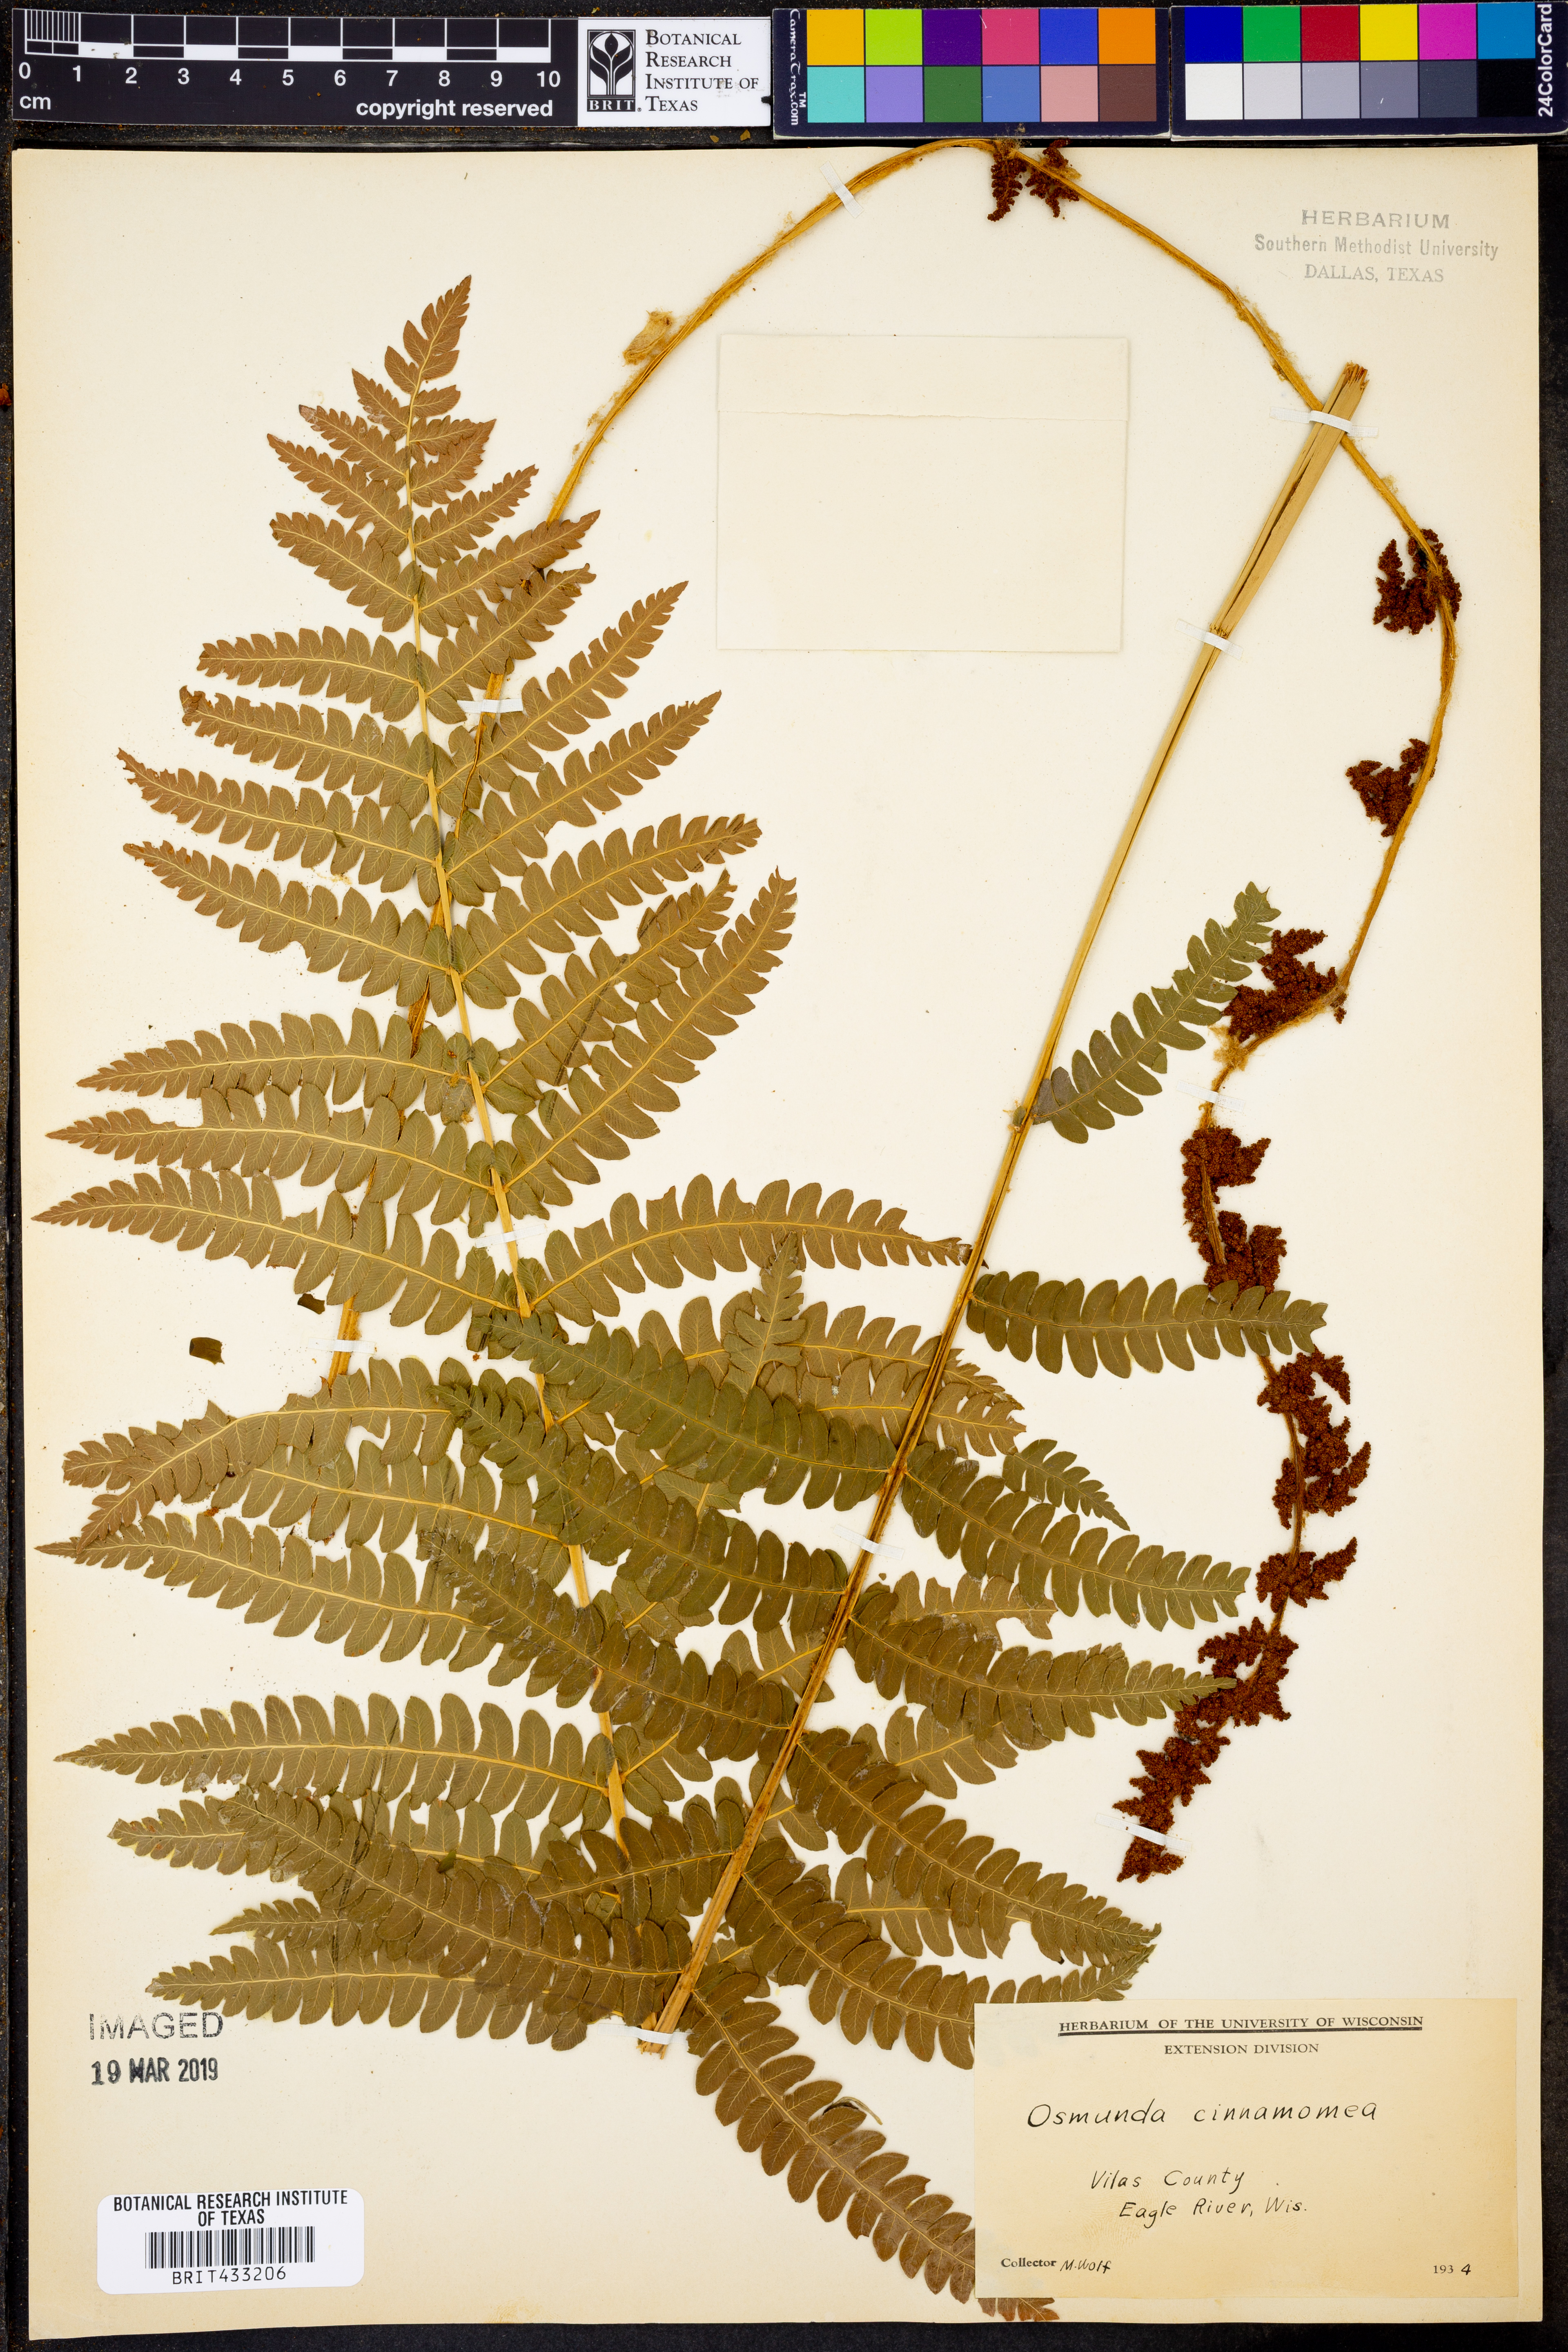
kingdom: Plantae
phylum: Tracheophyta
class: Polypodiopsida
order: Osmundales
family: Osmundaceae
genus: Osmundastrum
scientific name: Osmundastrum cinnamomeum
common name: Cinnamon fern
